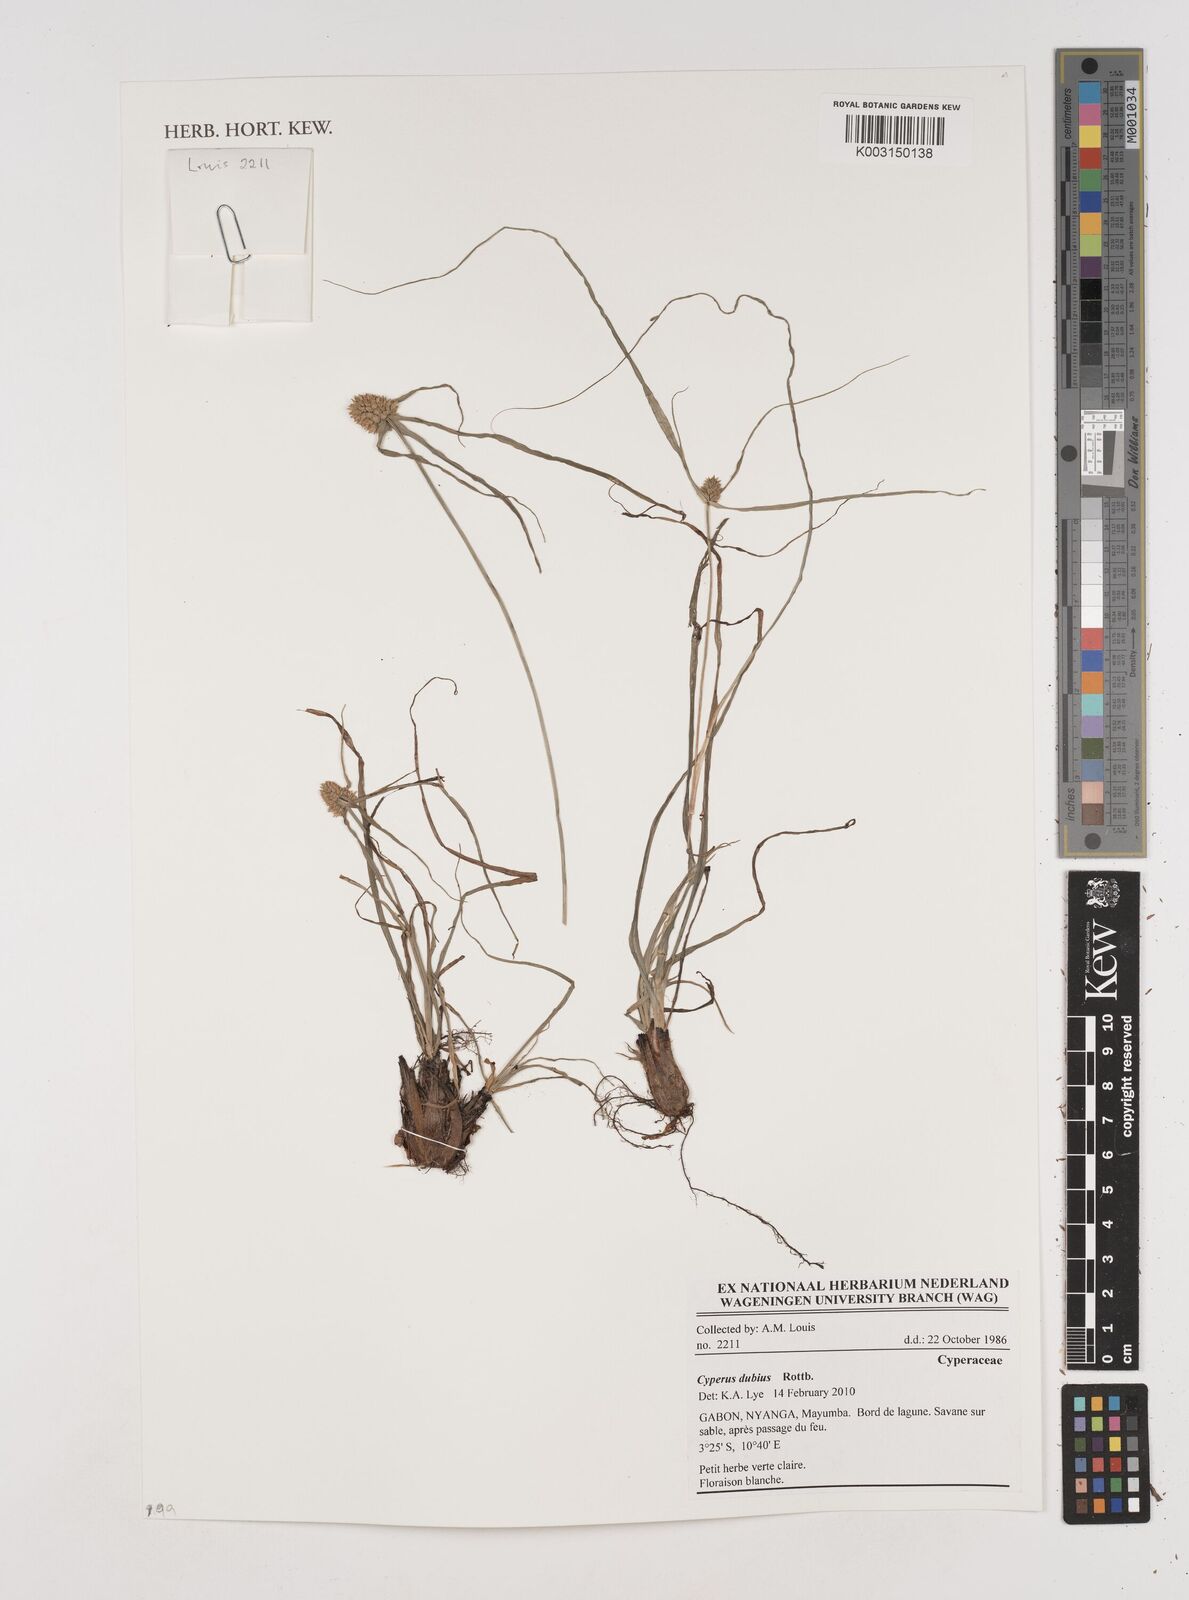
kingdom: Plantae
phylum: Tracheophyta
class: Liliopsida
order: Poales
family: Cyperaceae
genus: Cyperus
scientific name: Cyperus dubius
